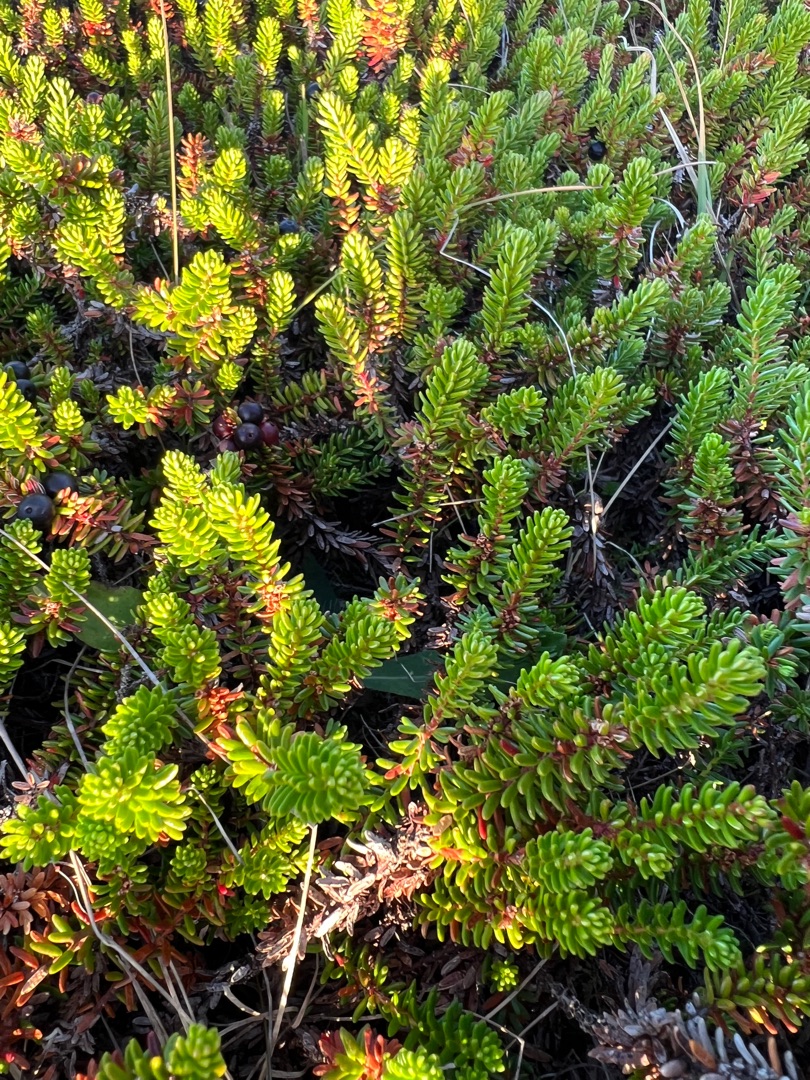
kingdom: Plantae
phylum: Tracheophyta
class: Magnoliopsida
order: Ericales
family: Ericaceae
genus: Empetrum
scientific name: Empetrum nigrum
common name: Revling
